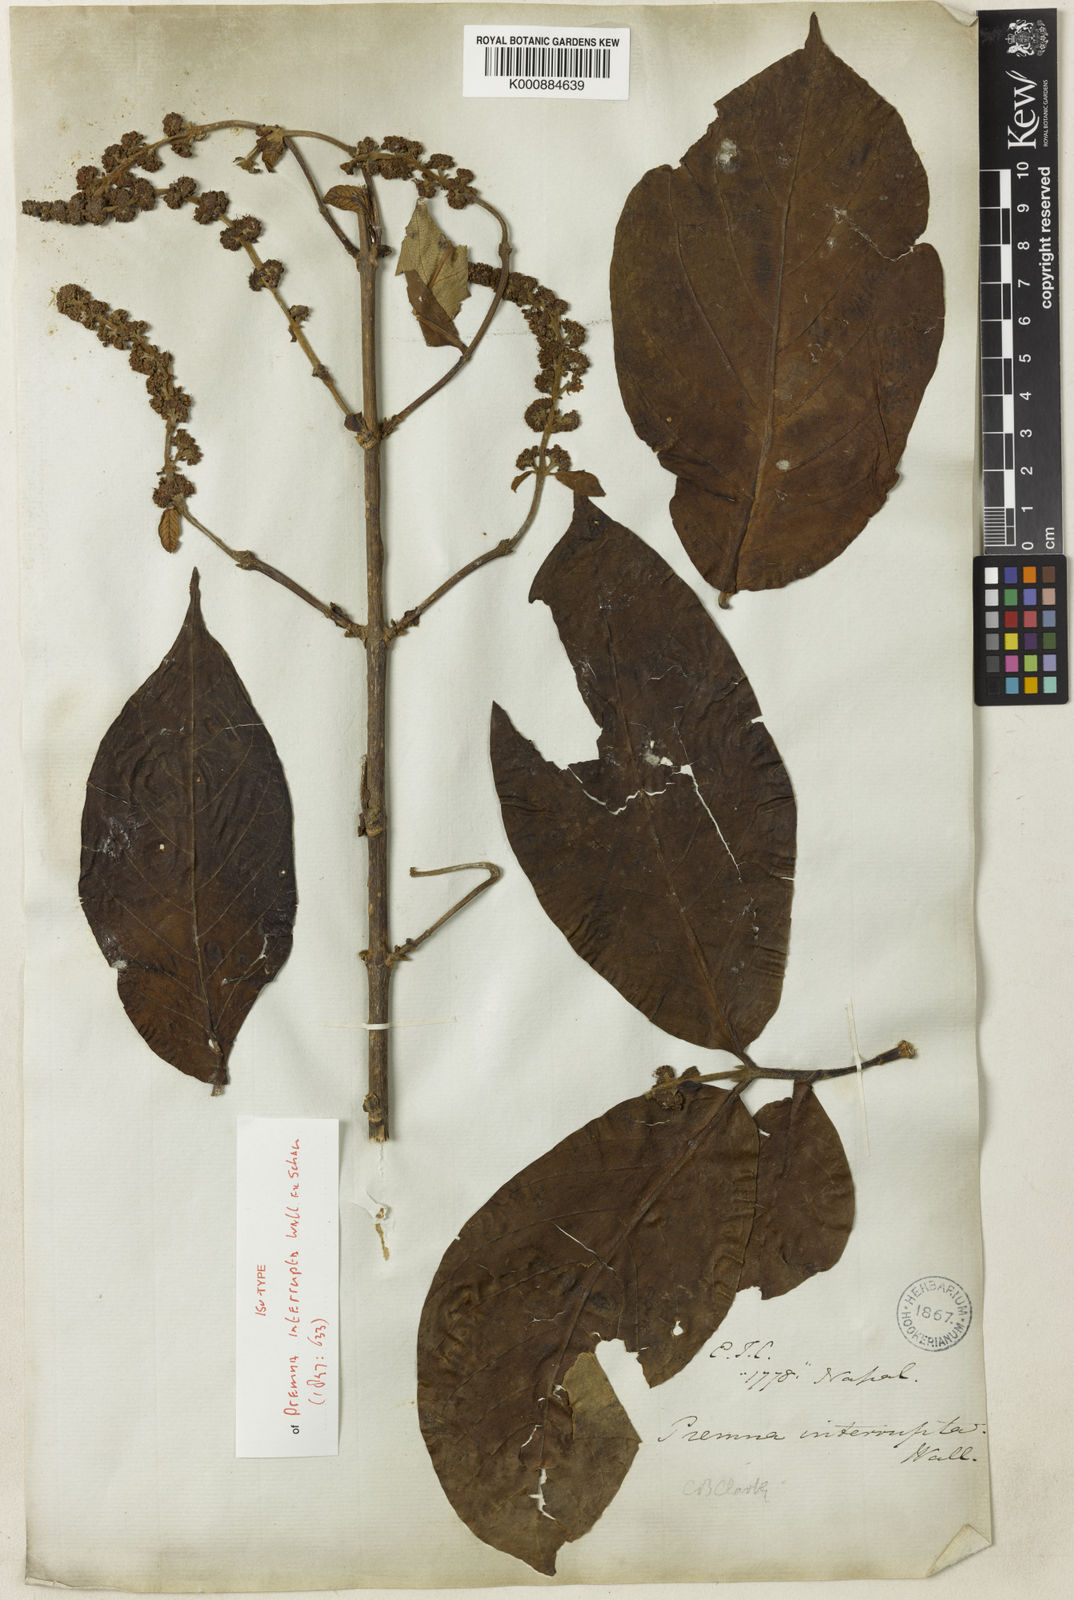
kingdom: Plantae
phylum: Tracheophyta
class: Magnoliopsida
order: Lamiales
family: Lamiaceae
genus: Premna
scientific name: Premna
